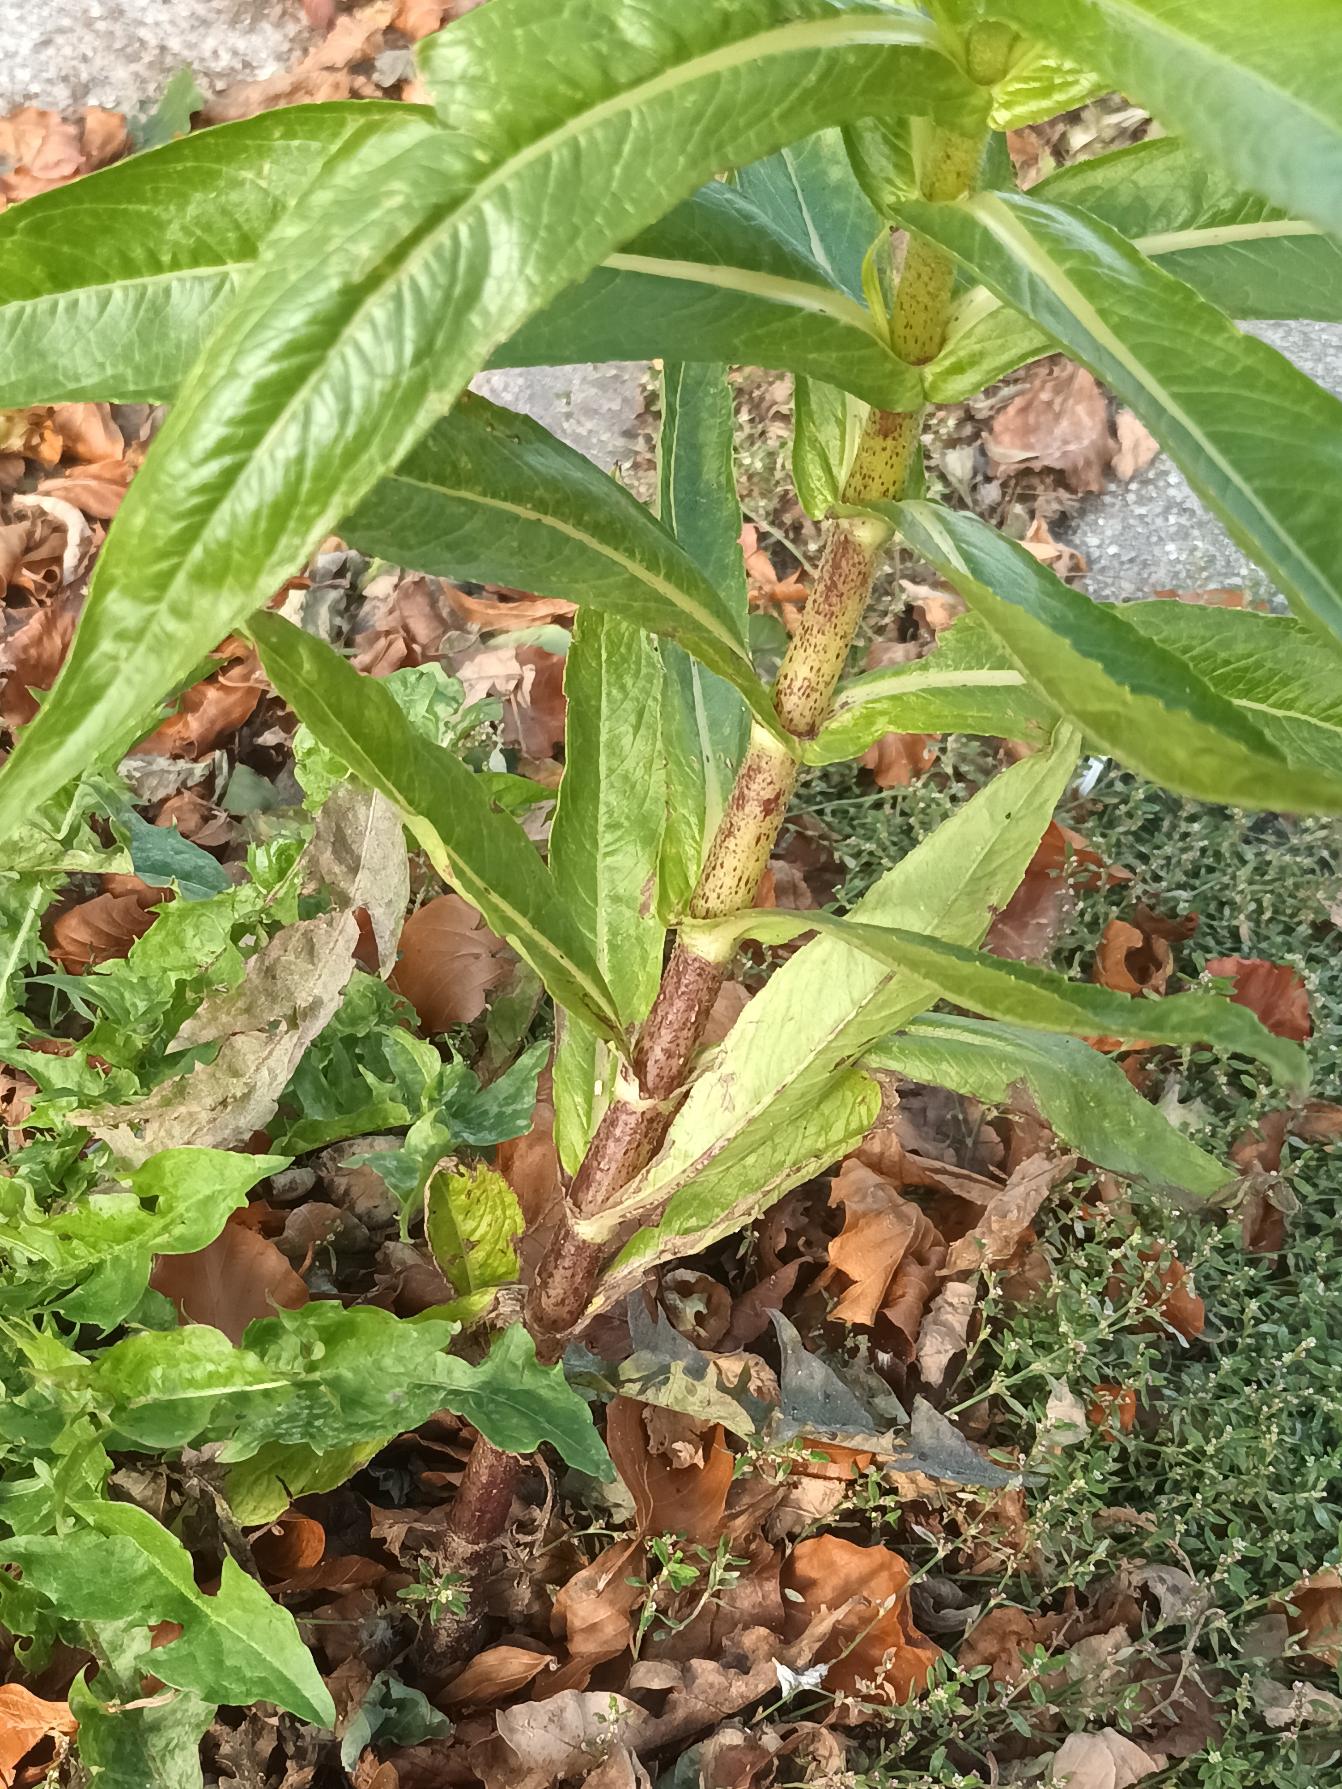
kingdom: Plantae
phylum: Tracheophyta
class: Magnoliopsida
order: Asterales
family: Asteraceae
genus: Guizotia
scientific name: Guizotia abyssinica
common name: Nigerfrø
